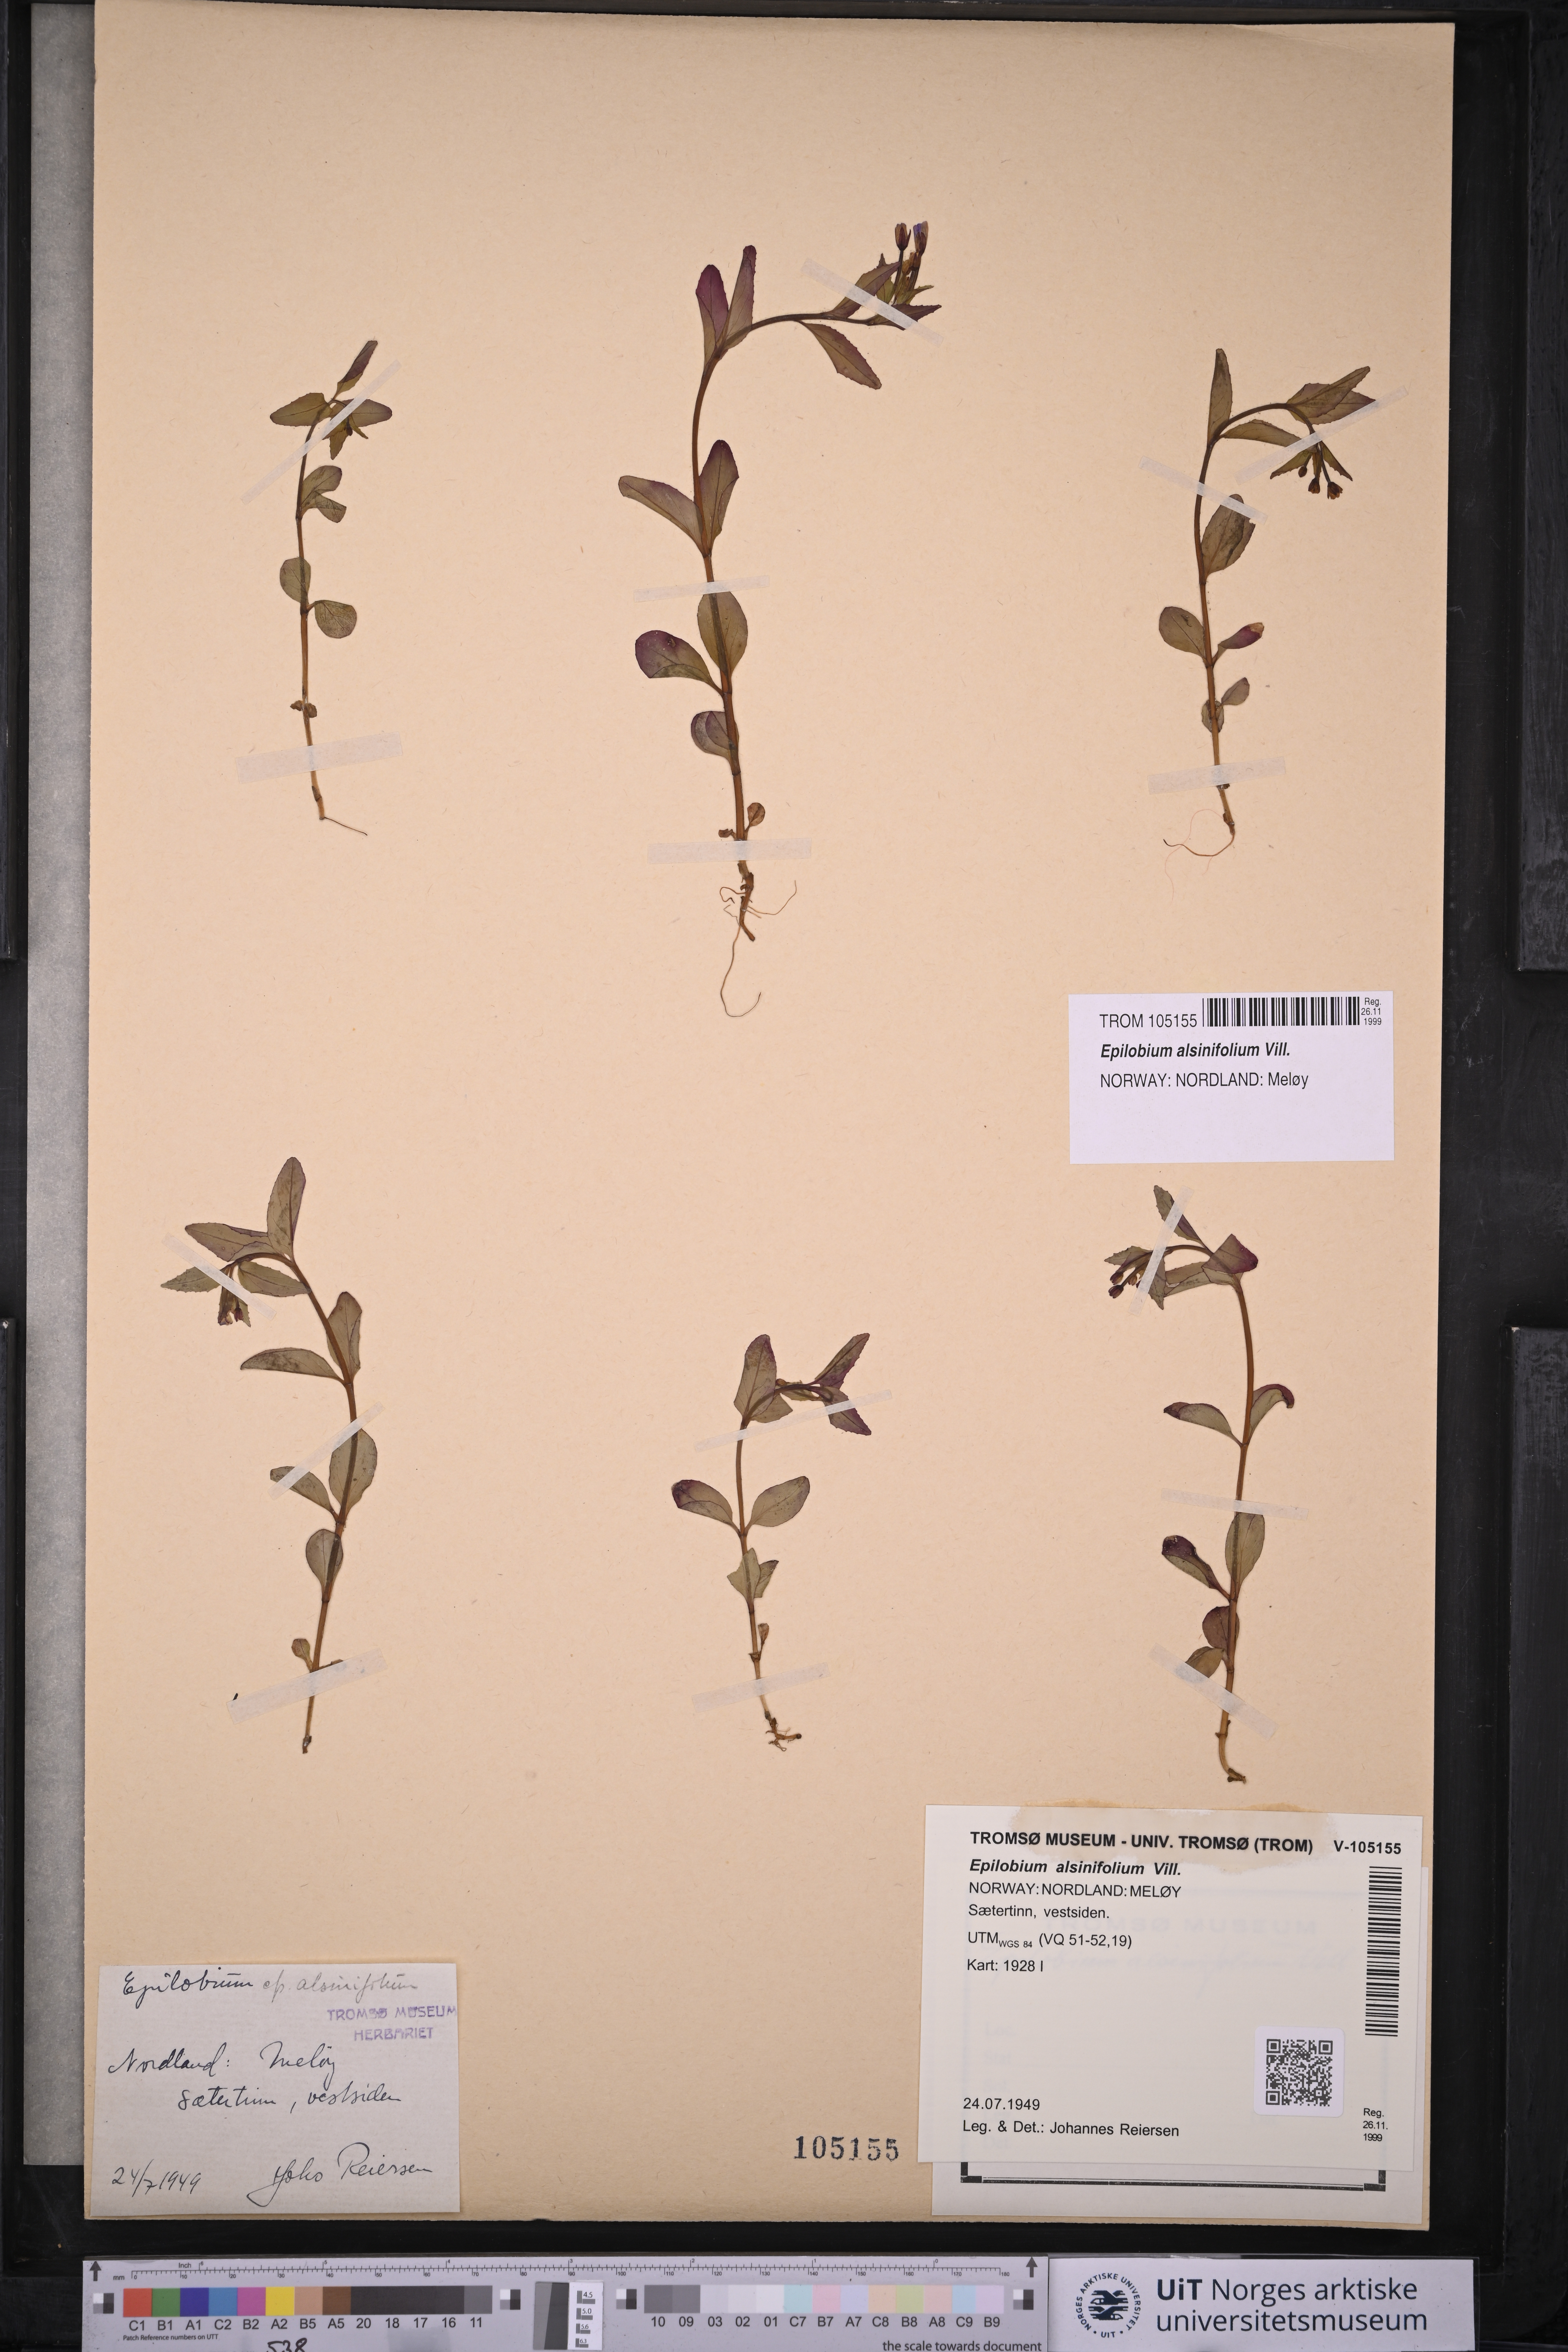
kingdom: Plantae
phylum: Tracheophyta
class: Magnoliopsida
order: Myrtales
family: Onagraceae
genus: Epilobium
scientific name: Epilobium alsinifolium
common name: Chickweed willowherb
